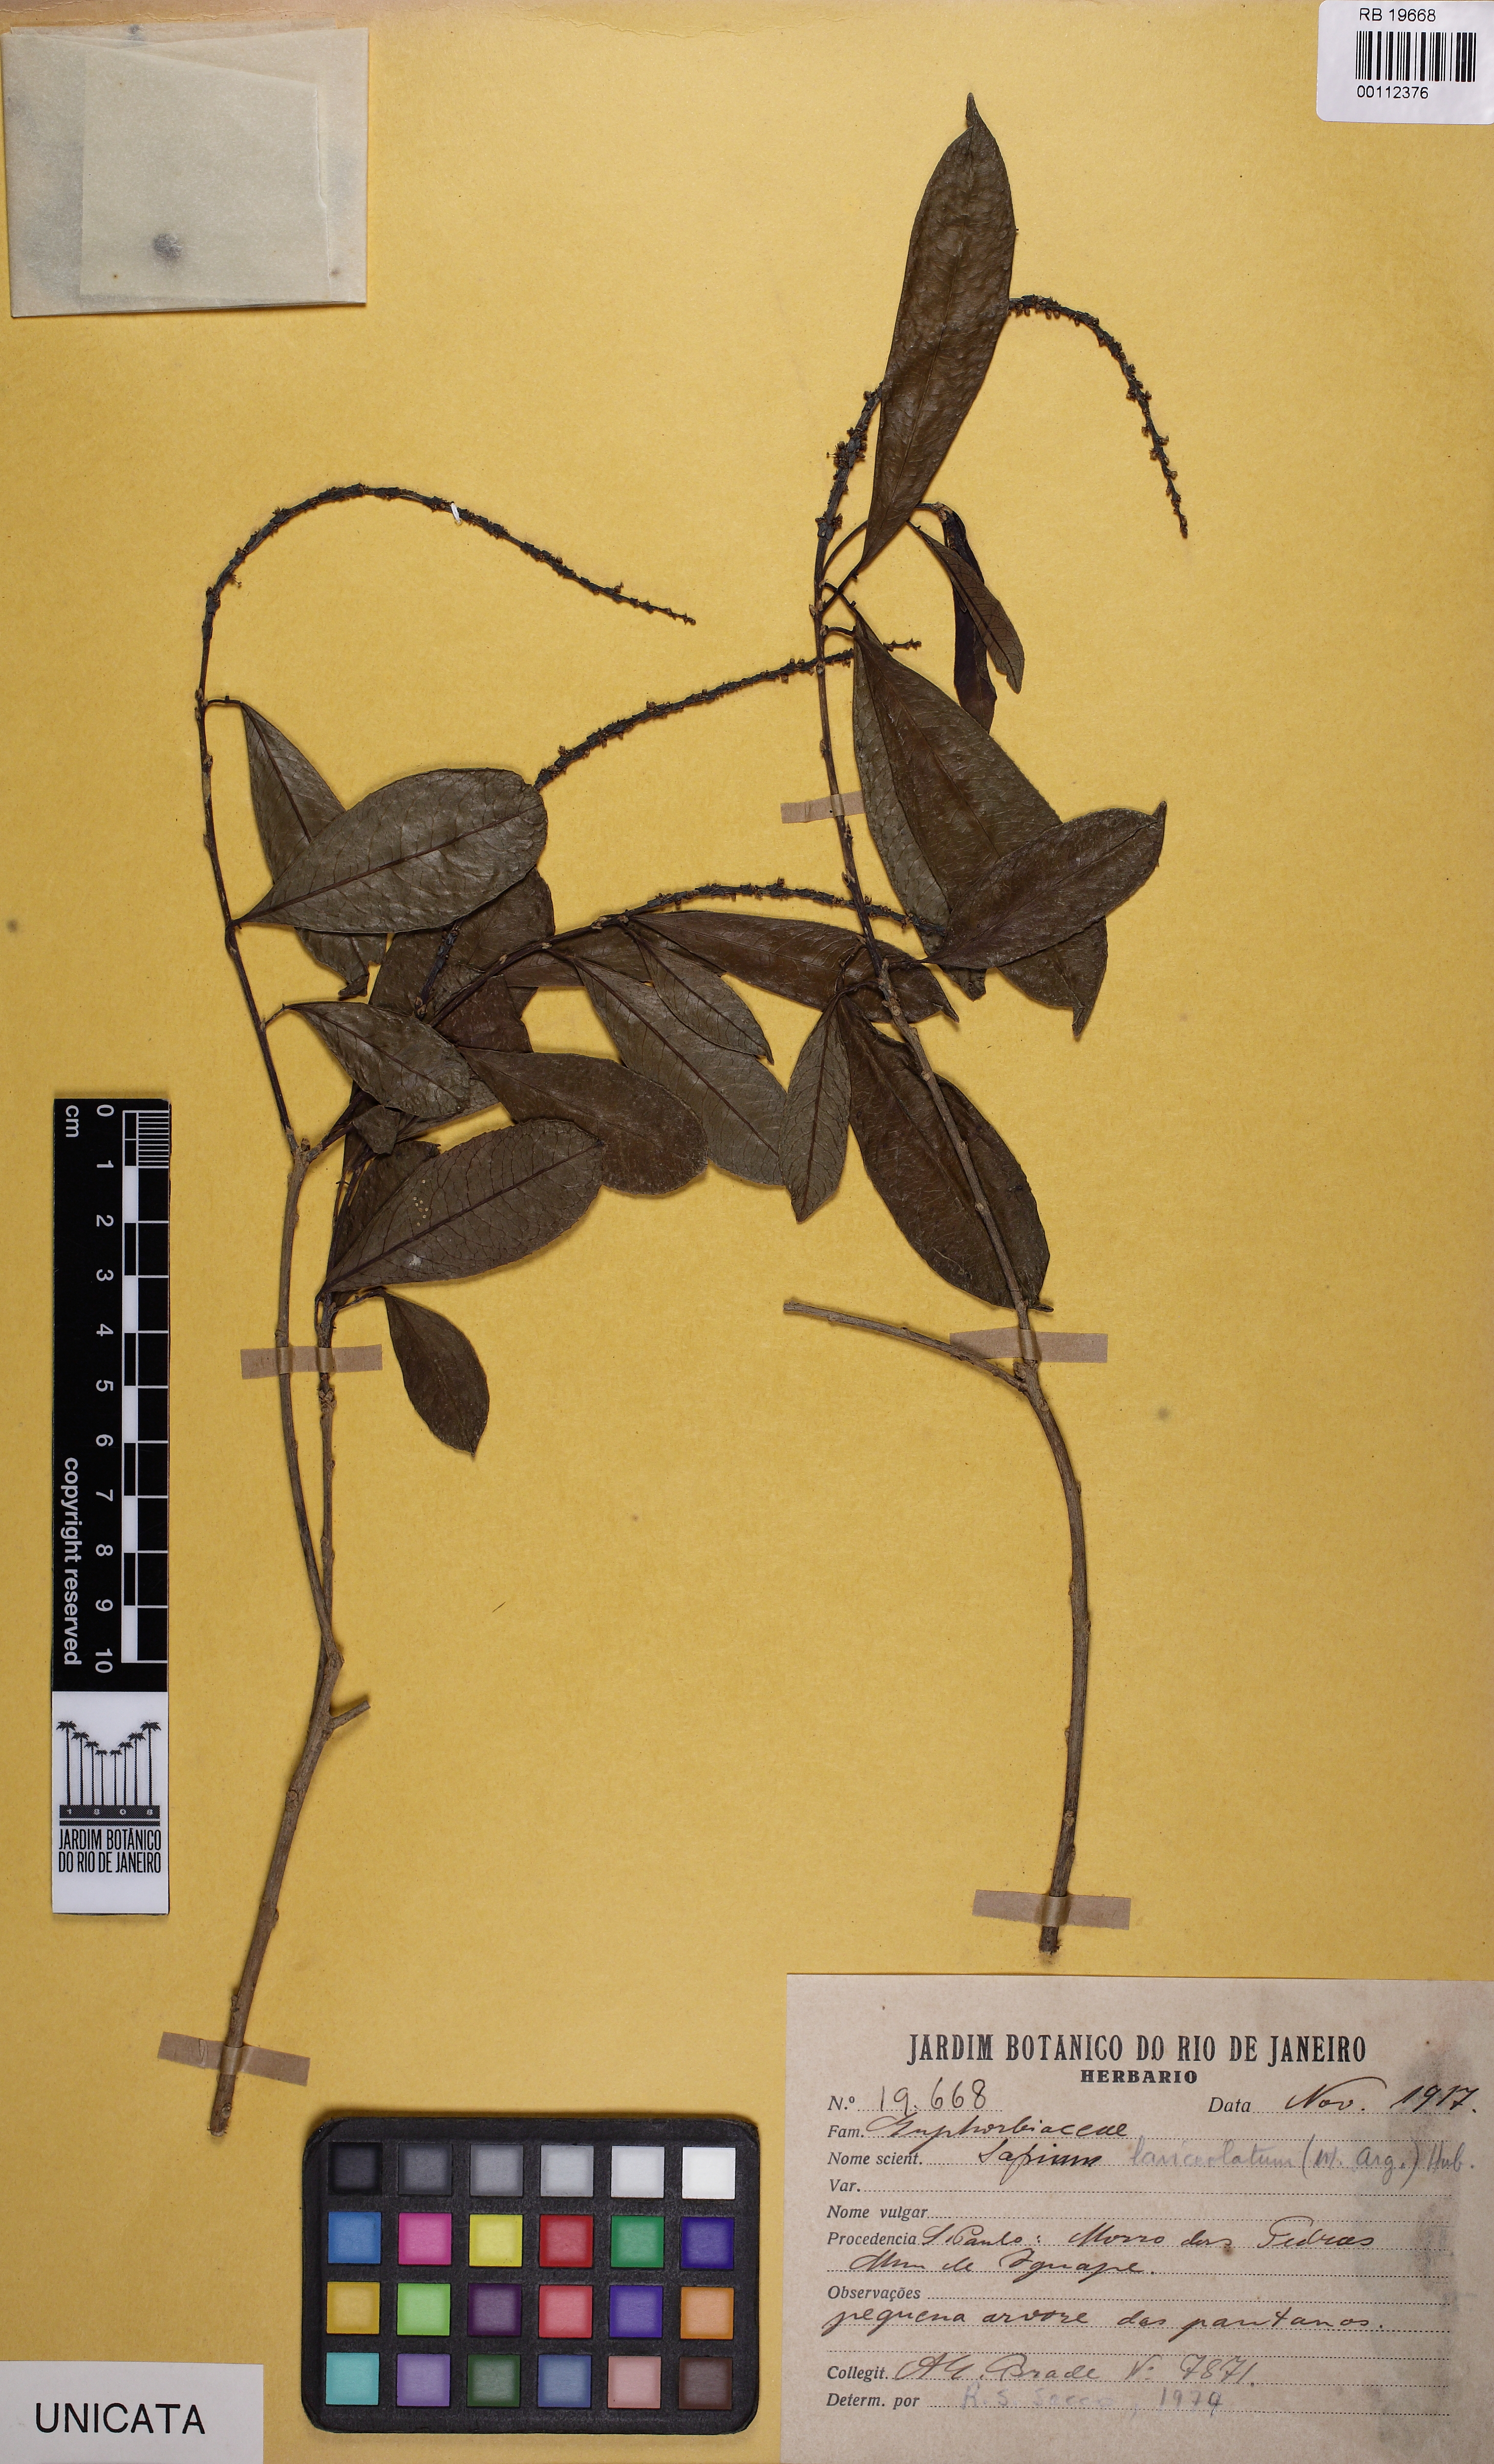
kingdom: Plantae
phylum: Tracheophyta
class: Magnoliopsida
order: Malpighiales
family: Euphorbiaceae
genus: Sapium
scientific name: Sapium glandulosum
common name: Milktree
